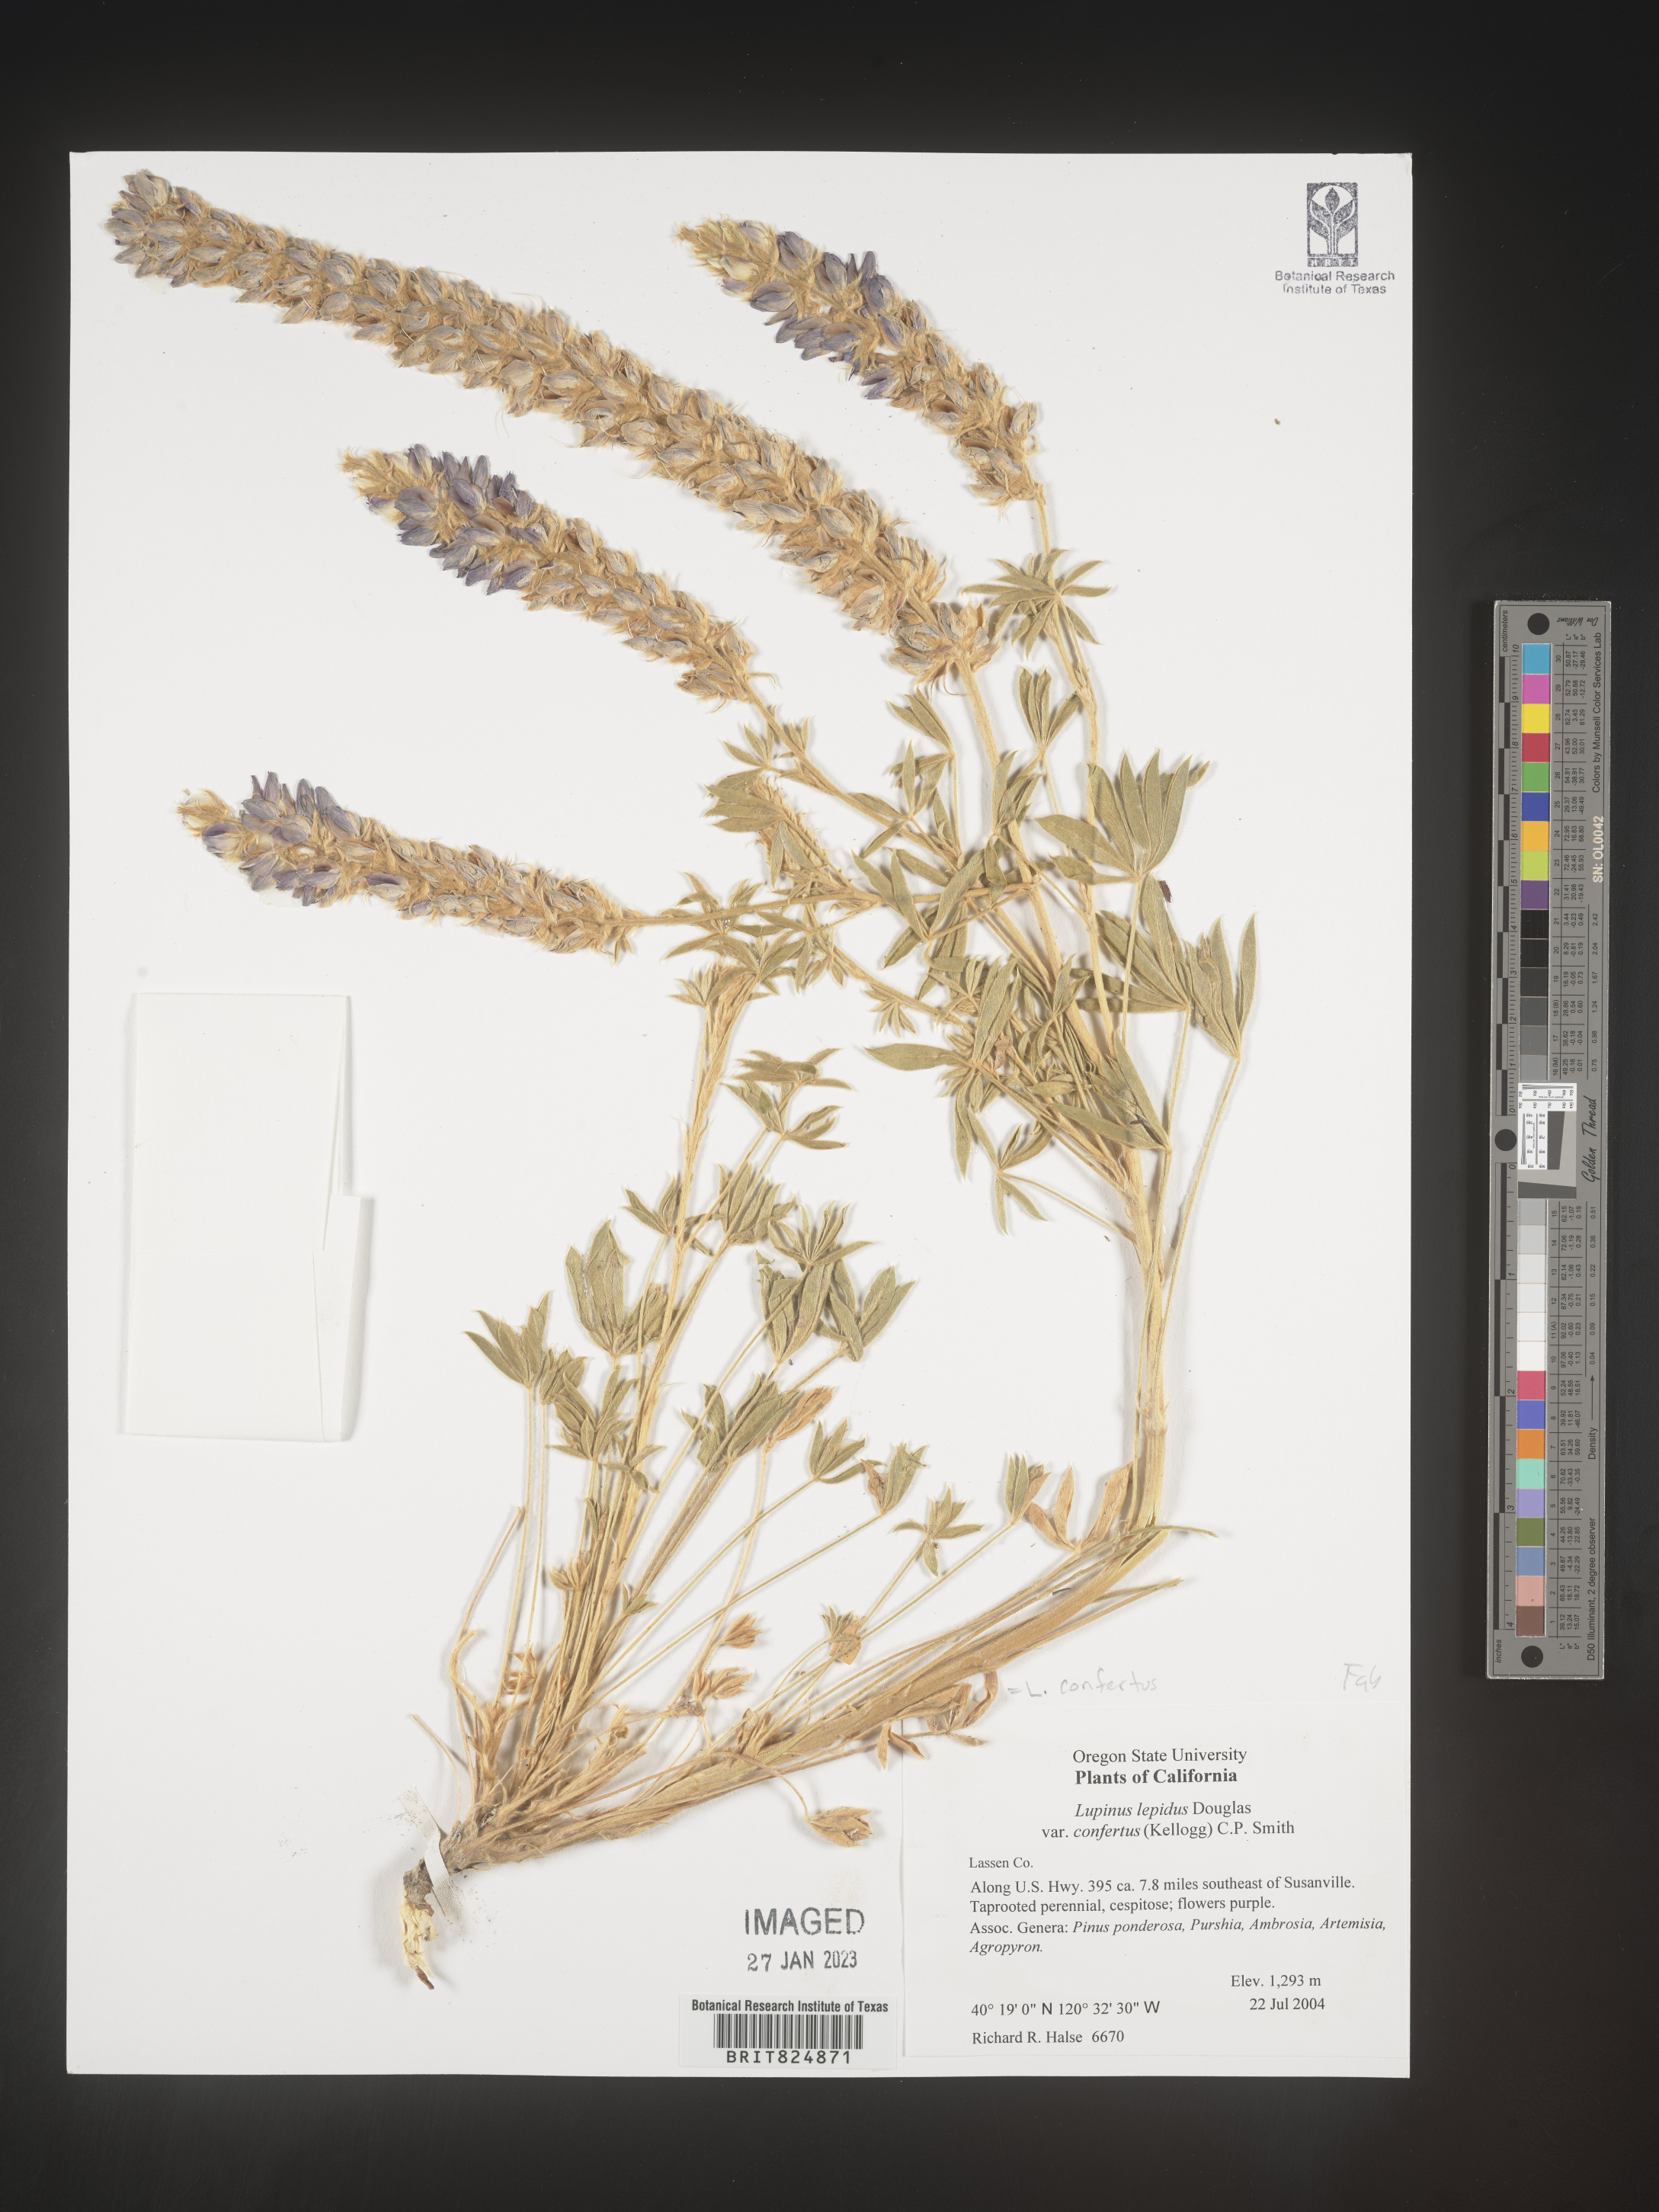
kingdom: Plantae
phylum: Tracheophyta
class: Magnoliopsida
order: Fabales
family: Fabaceae
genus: Lupinus
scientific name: Lupinus
